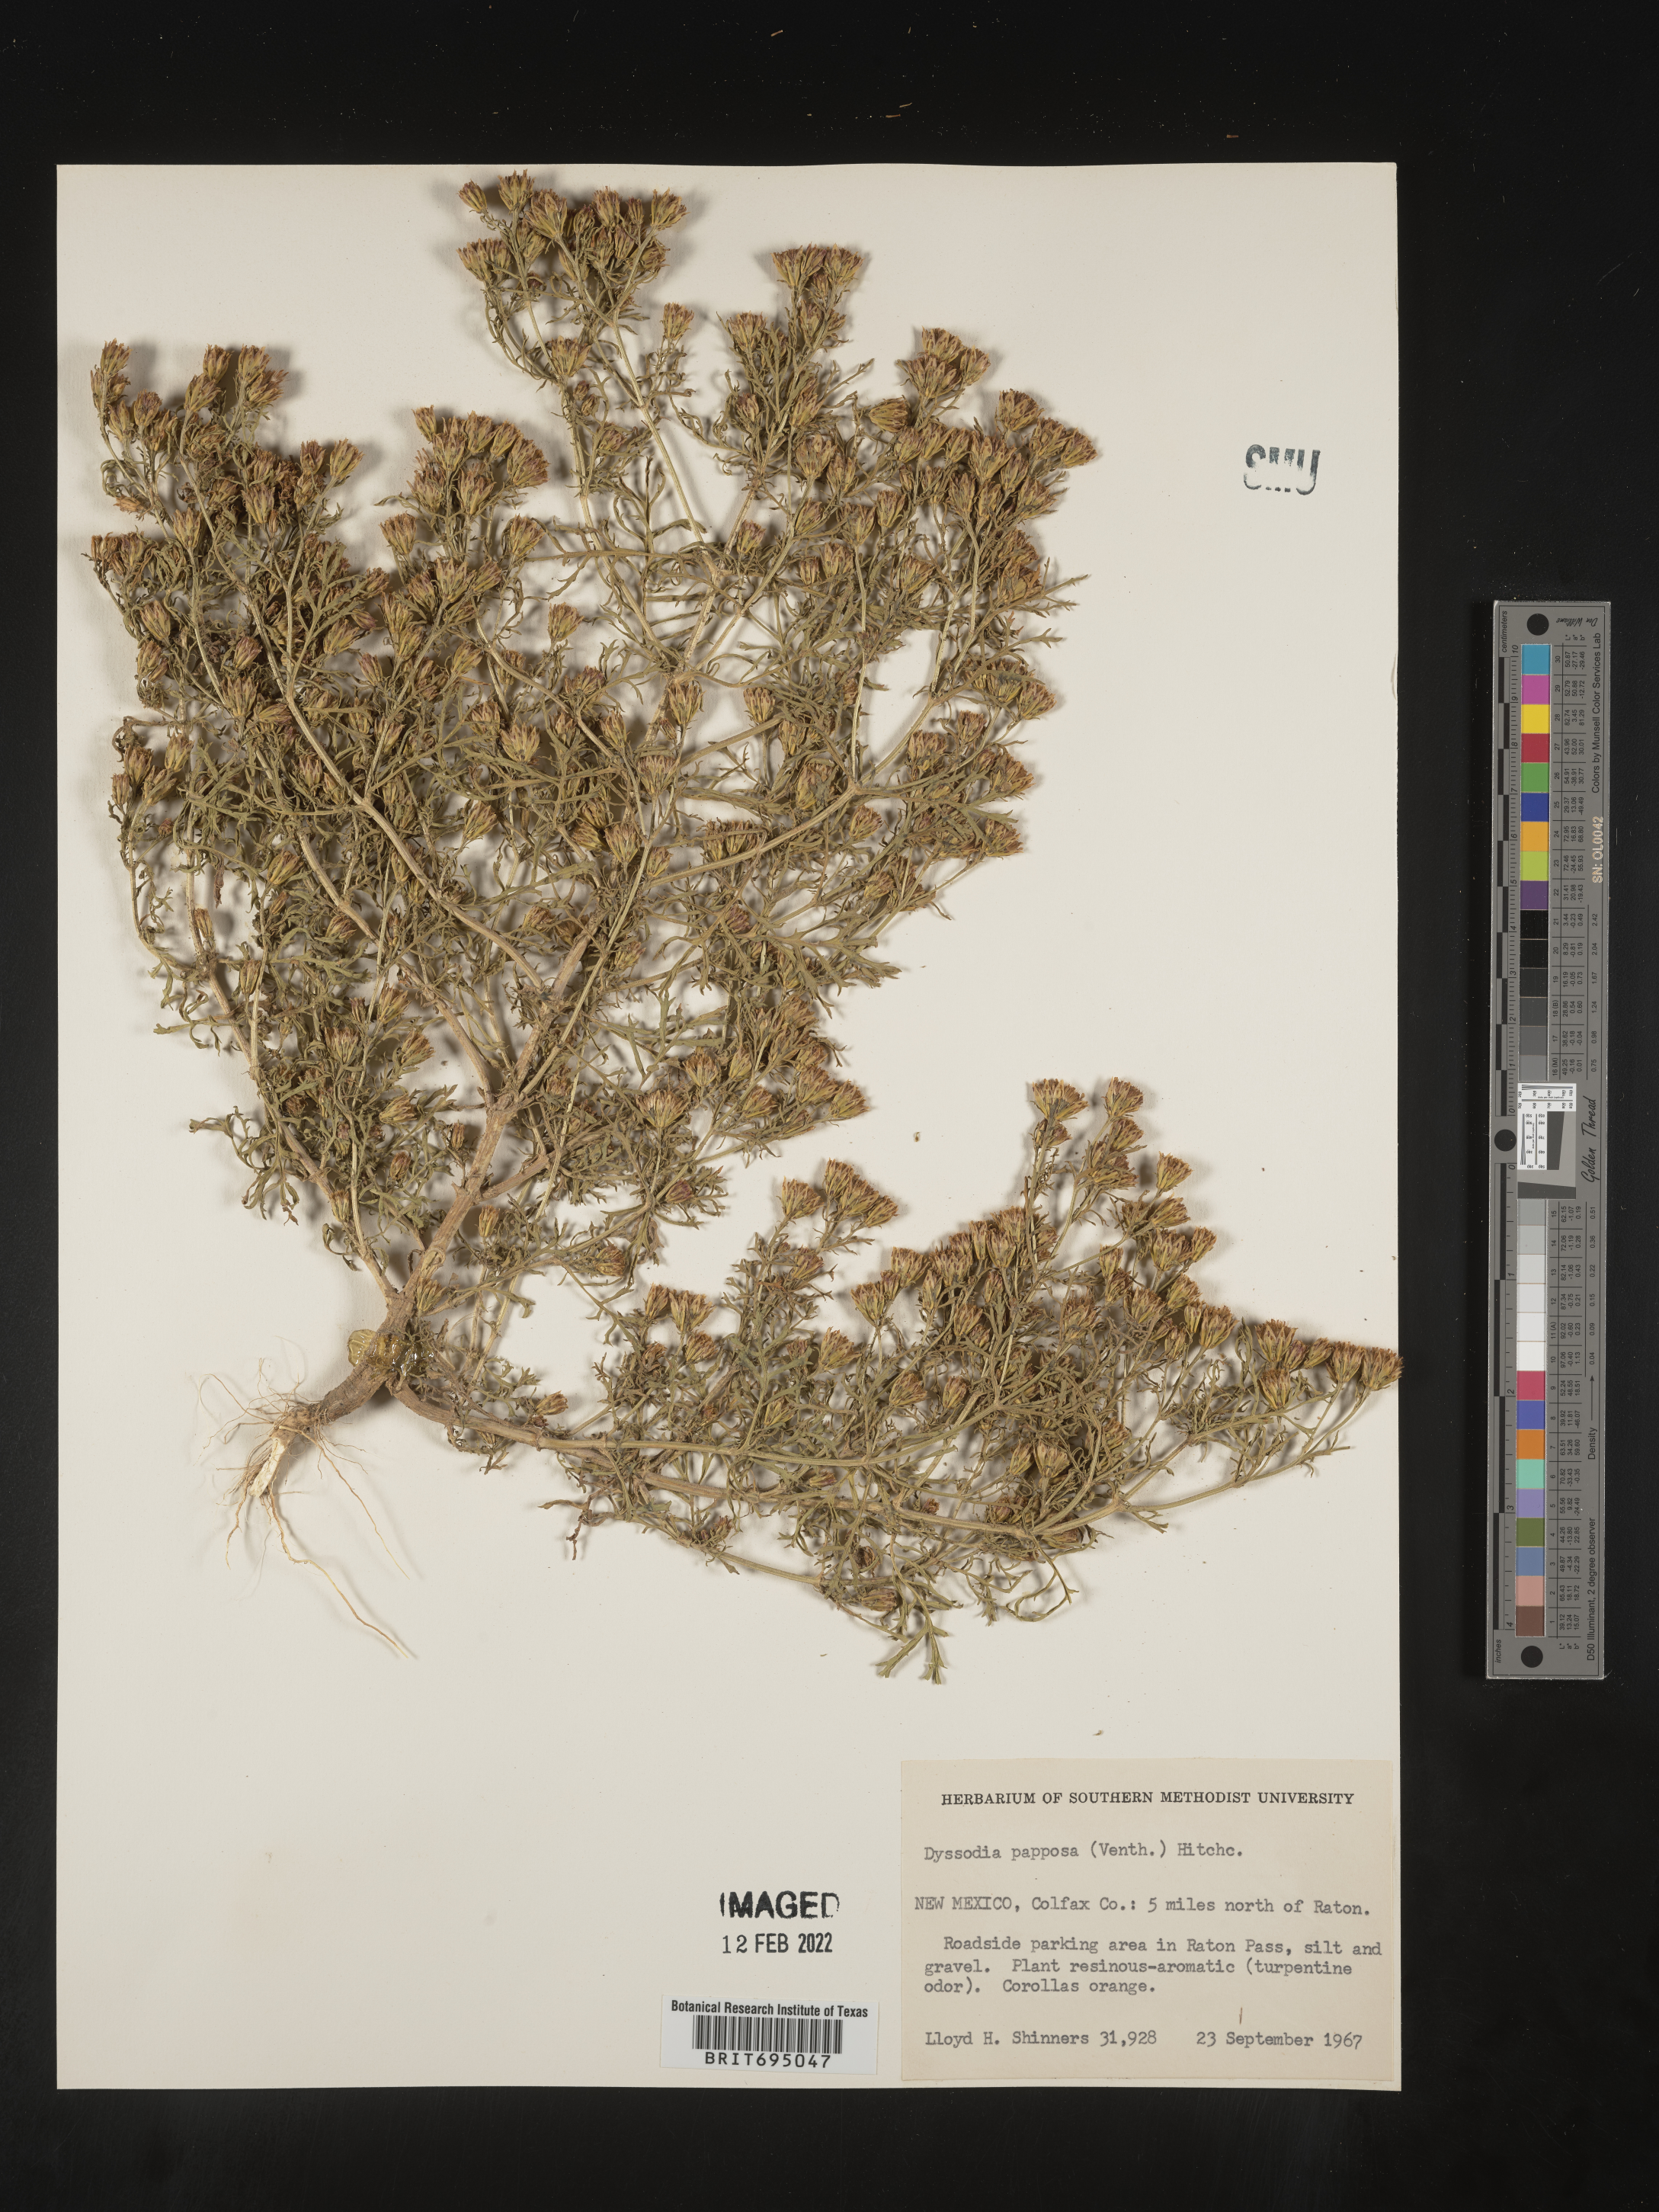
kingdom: Plantae
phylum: Tracheophyta
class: Magnoliopsida
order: Asterales
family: Asteraceae
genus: Dyssodia
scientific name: Dyssodia papposa
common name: Dogweed
